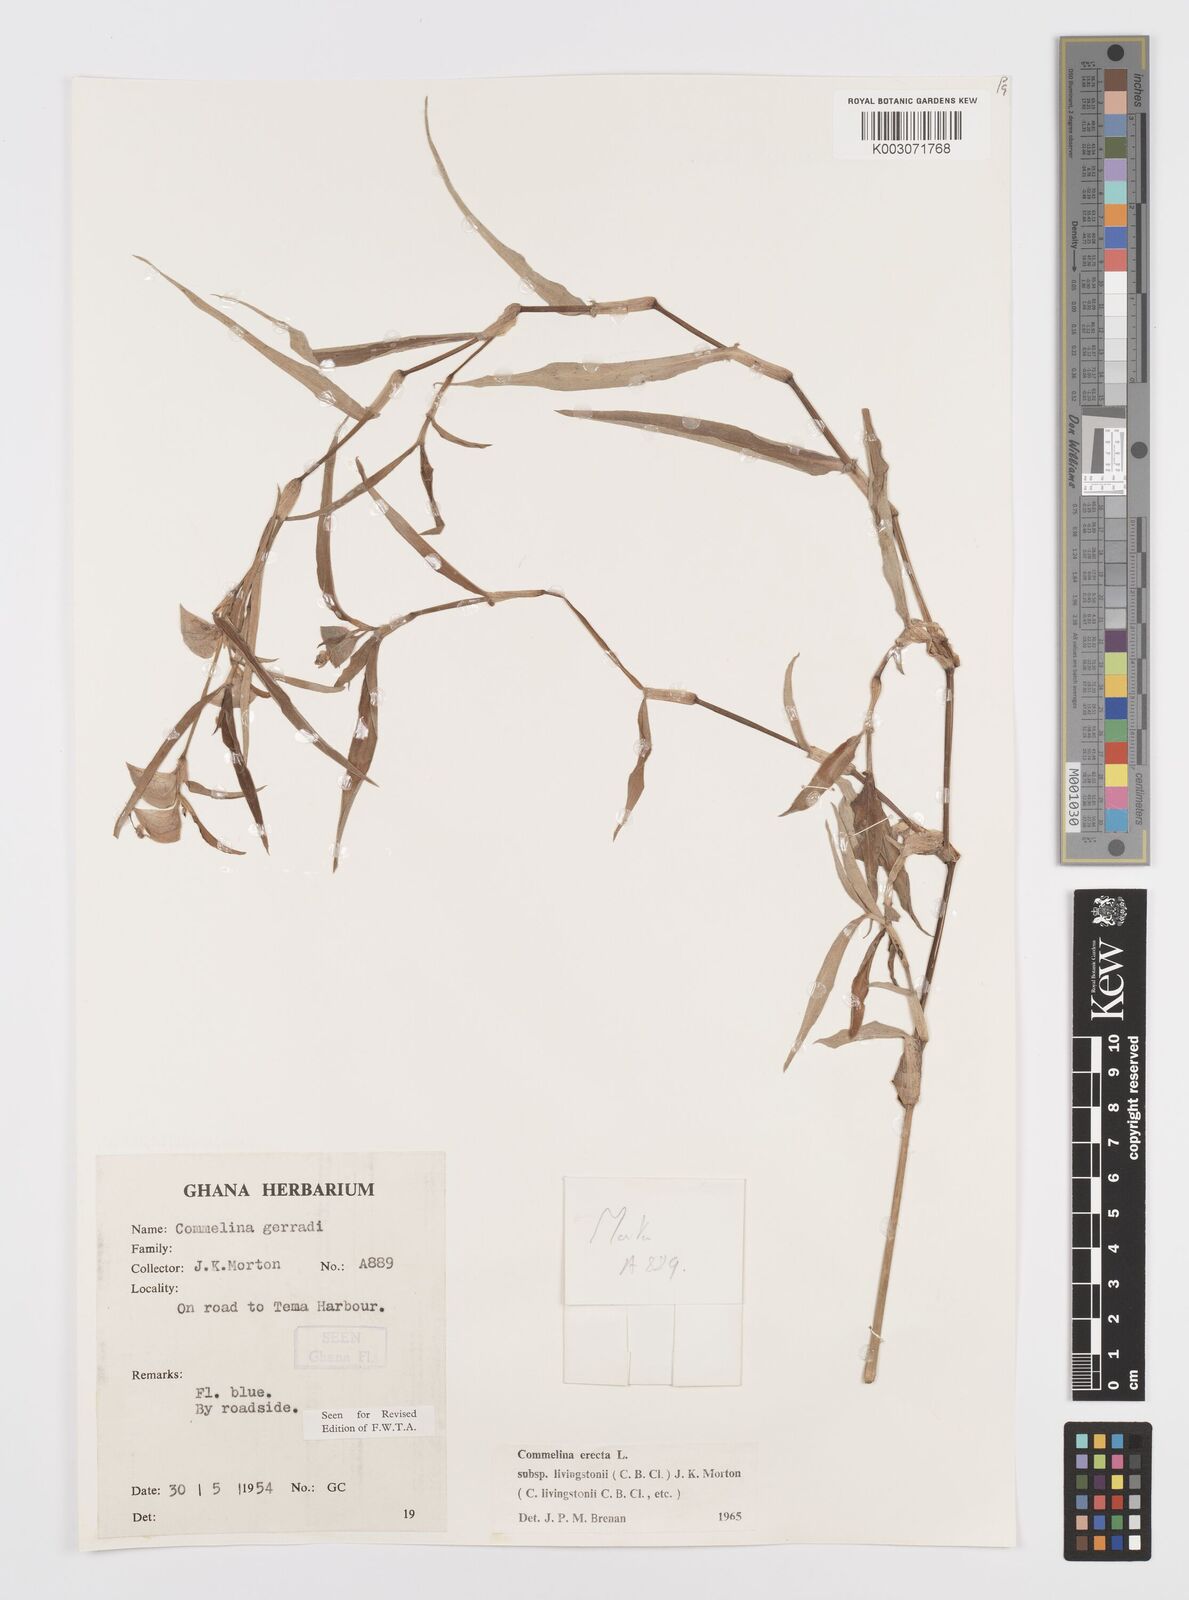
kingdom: Plantae
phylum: Tracheophyta
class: Liliopsida
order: Commelinales
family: Commelinaceae
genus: Commelina
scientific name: Commelina erecta
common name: Blousel blommetjie
